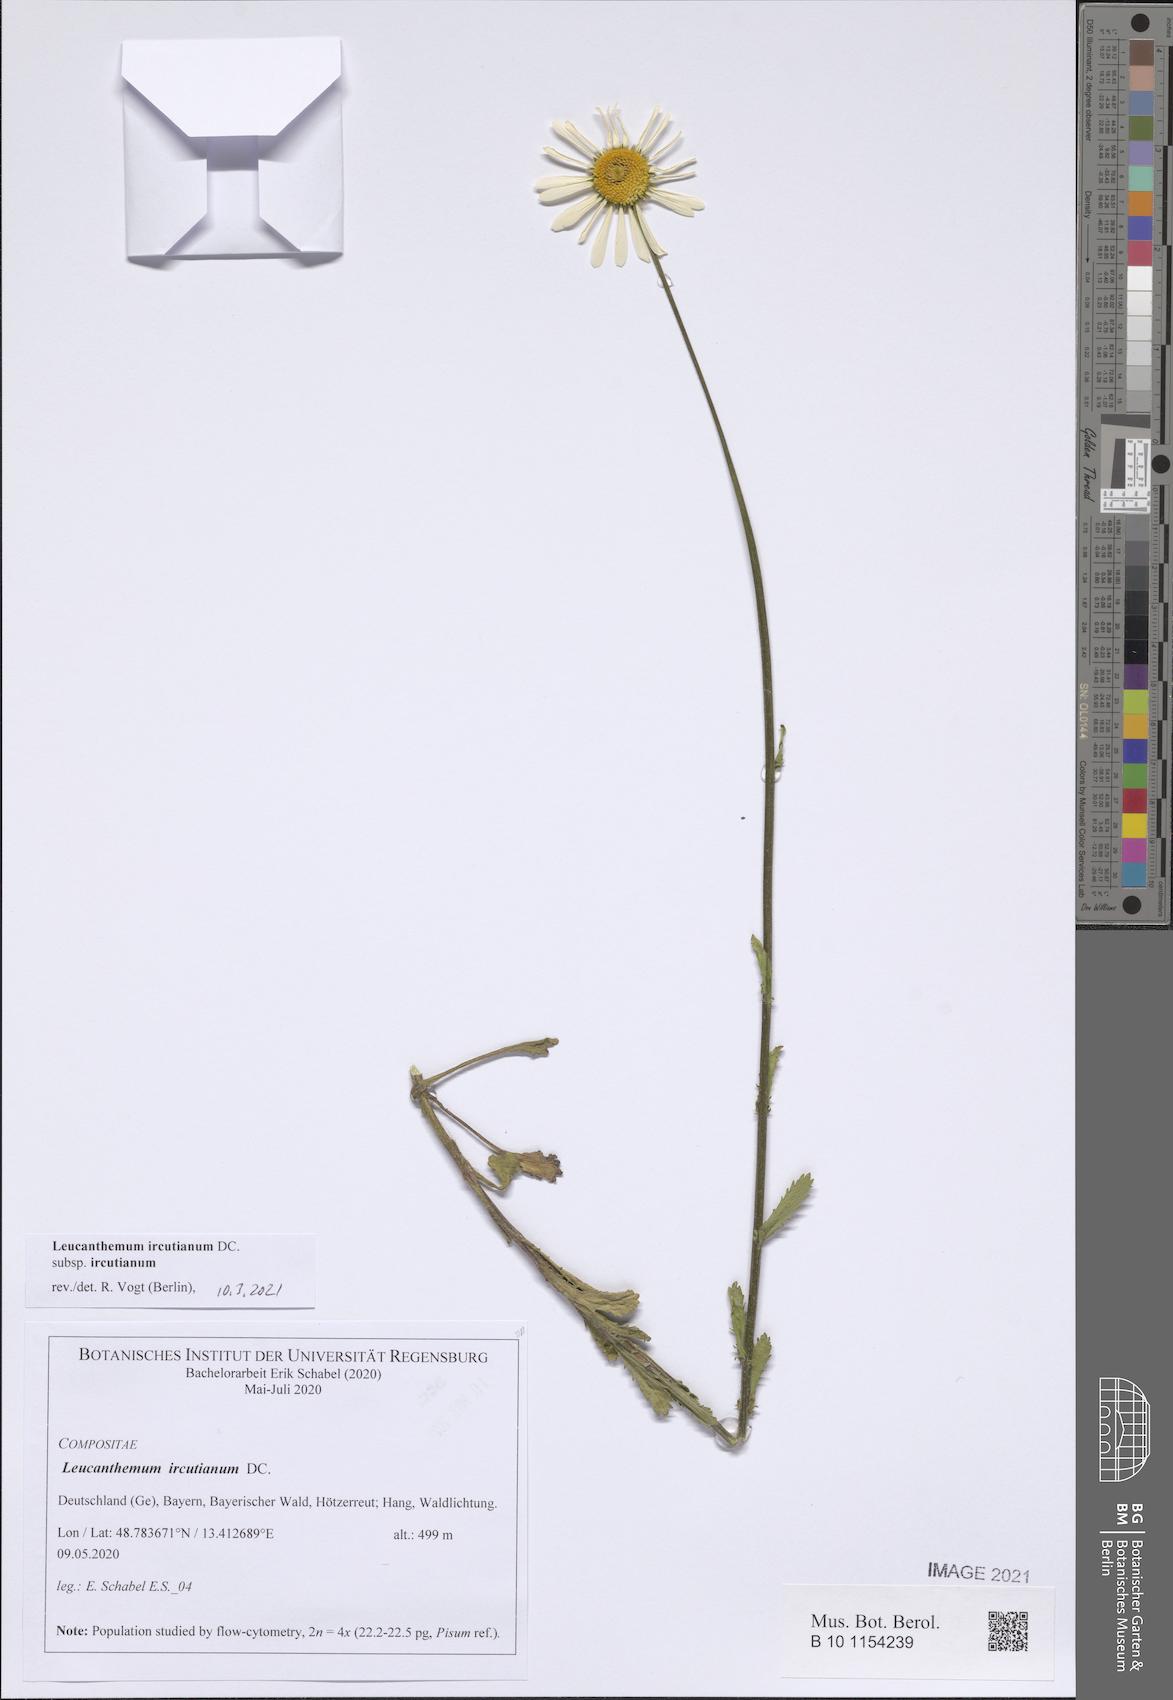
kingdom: Plantae
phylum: Tracheophyta
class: Magnoliopsida
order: Asterales
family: Asteraceae
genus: Leucanthemum
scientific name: Leucanthemum ircutianum
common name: Daisy
